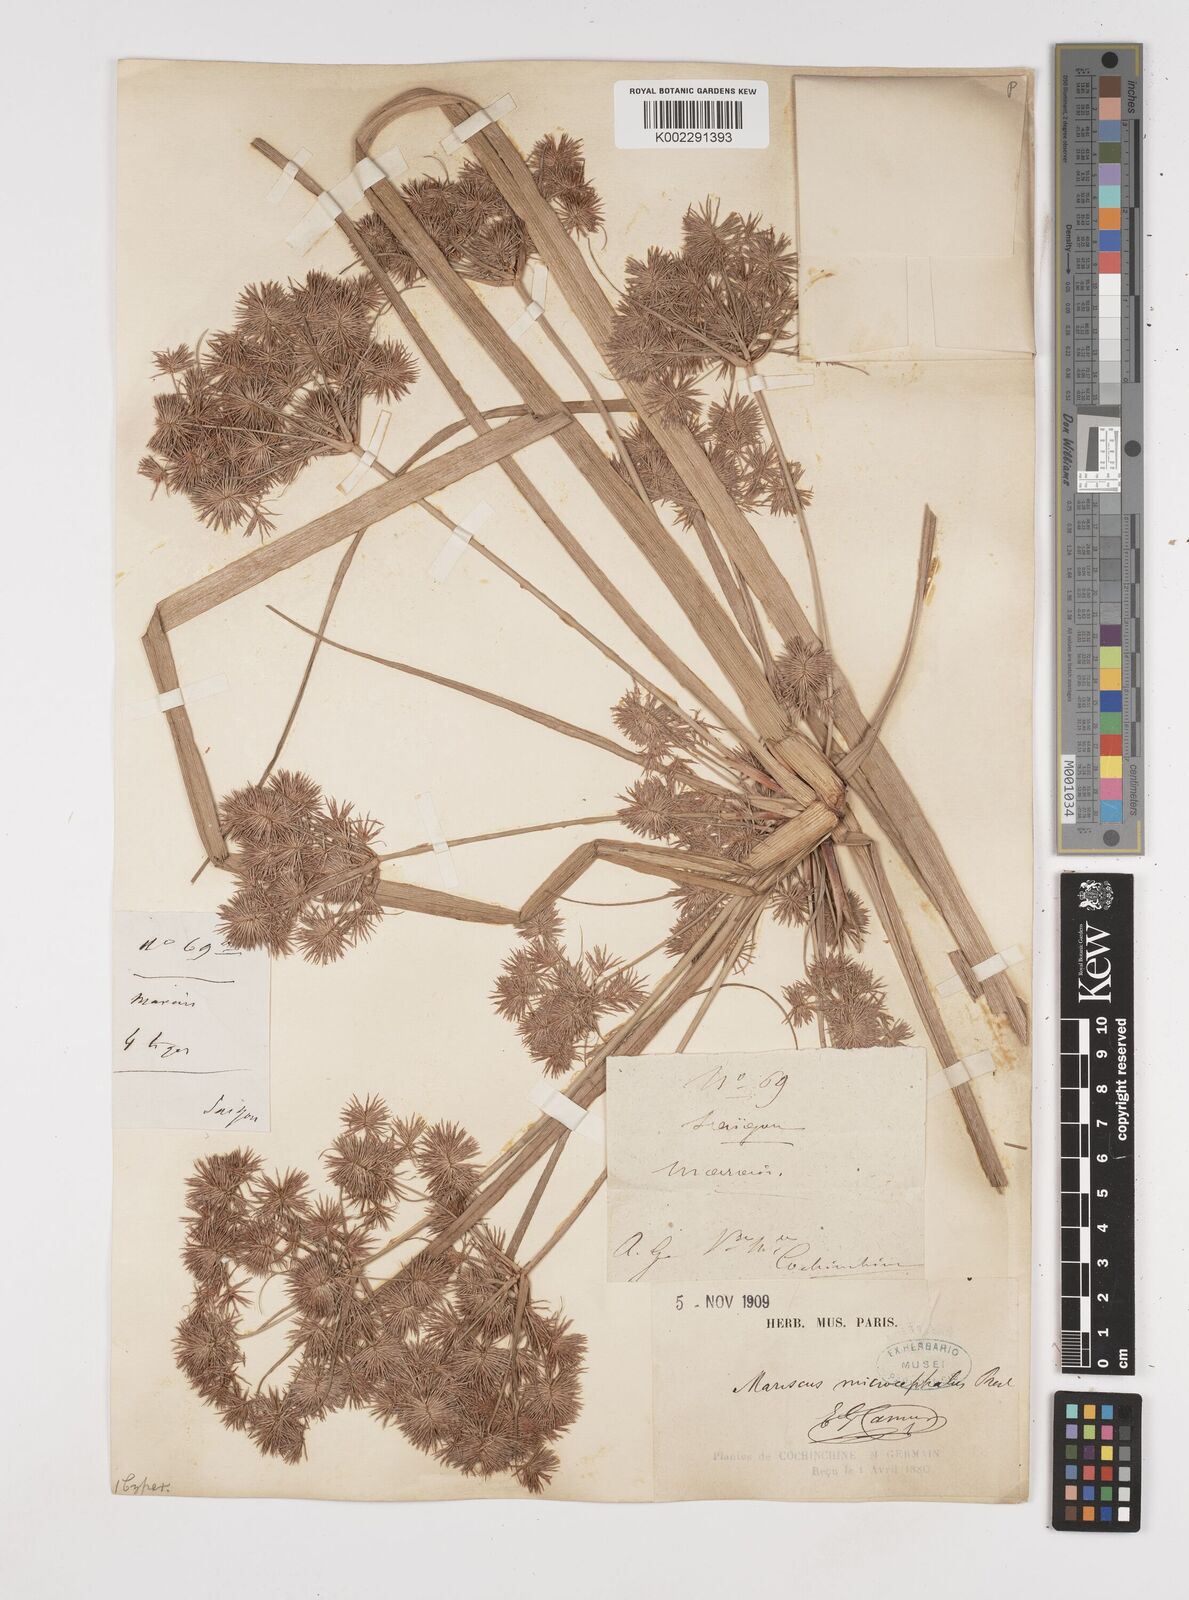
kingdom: Plantae
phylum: Tracheophyta
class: Liliopsida
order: Poales
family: Cyperaceae
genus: Cyperus
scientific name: Cyperus compactus
